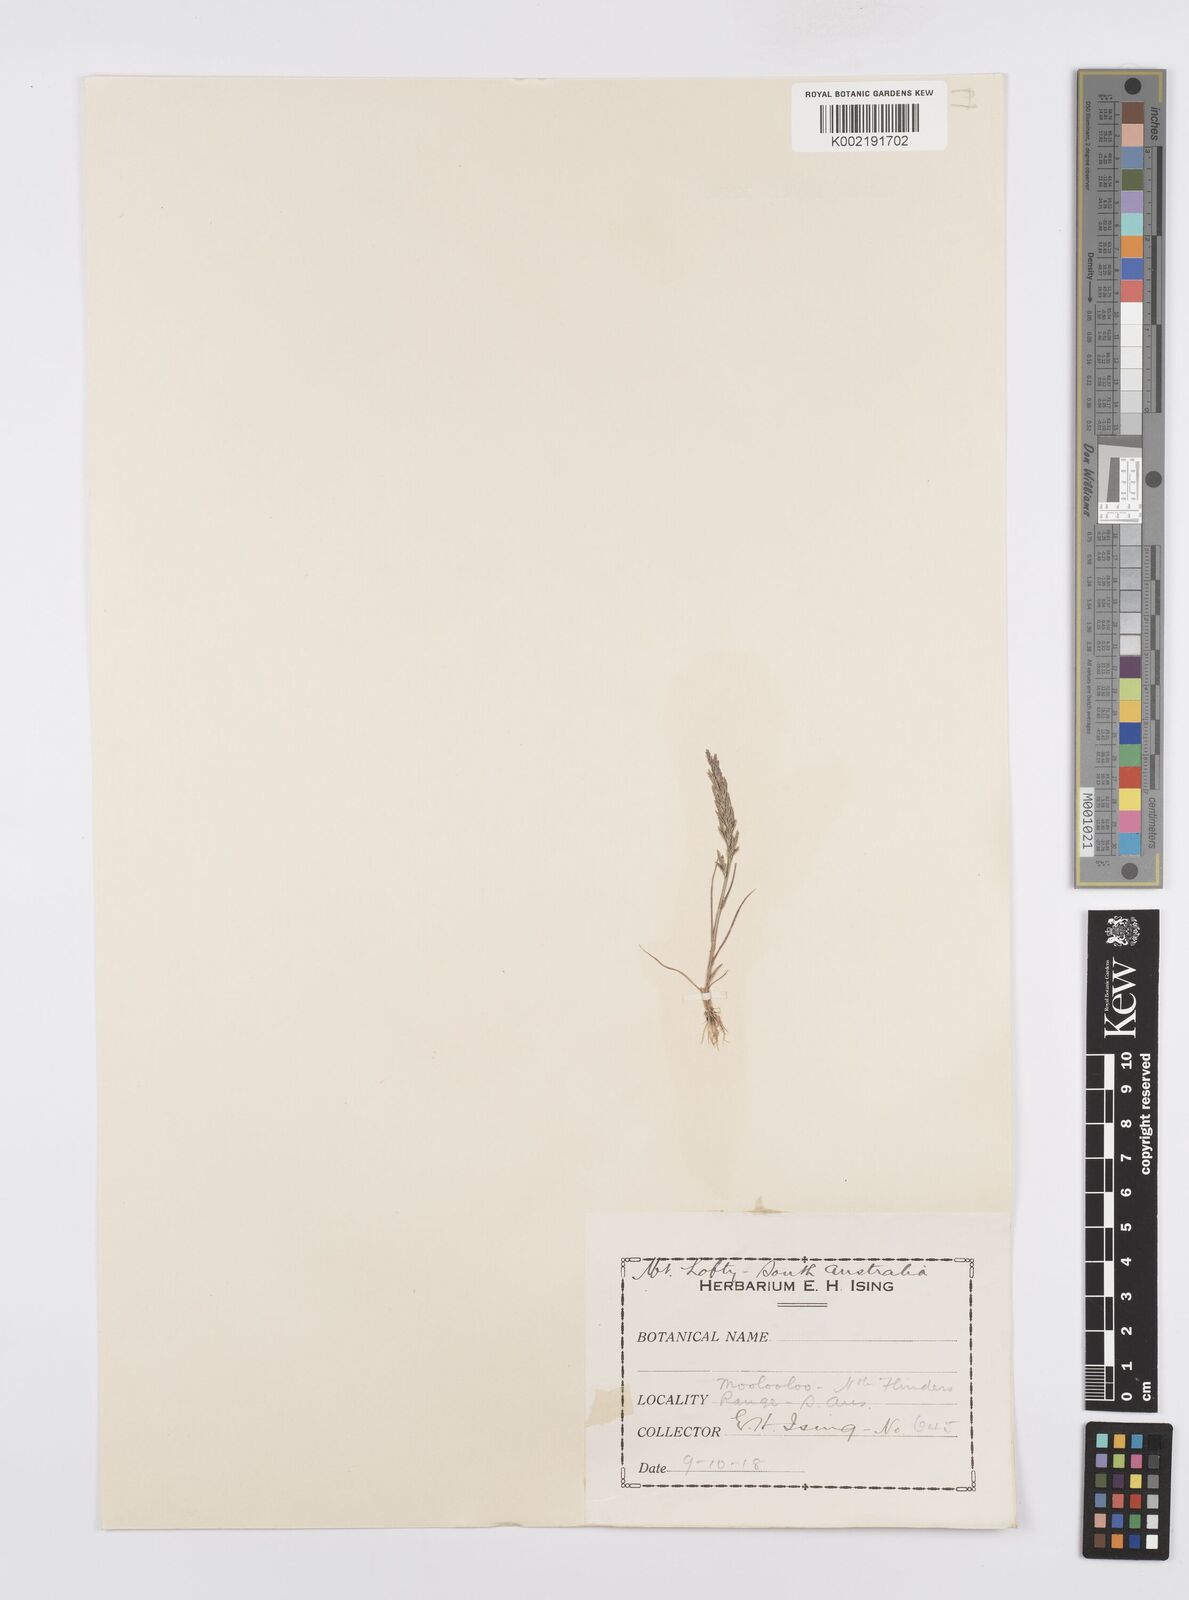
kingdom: Plantae
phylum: Tracheophyta
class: Liliopsida
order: Poales
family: Poaceae
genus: Catapodium
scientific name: Catapodium rigidum
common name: Fern-grass
